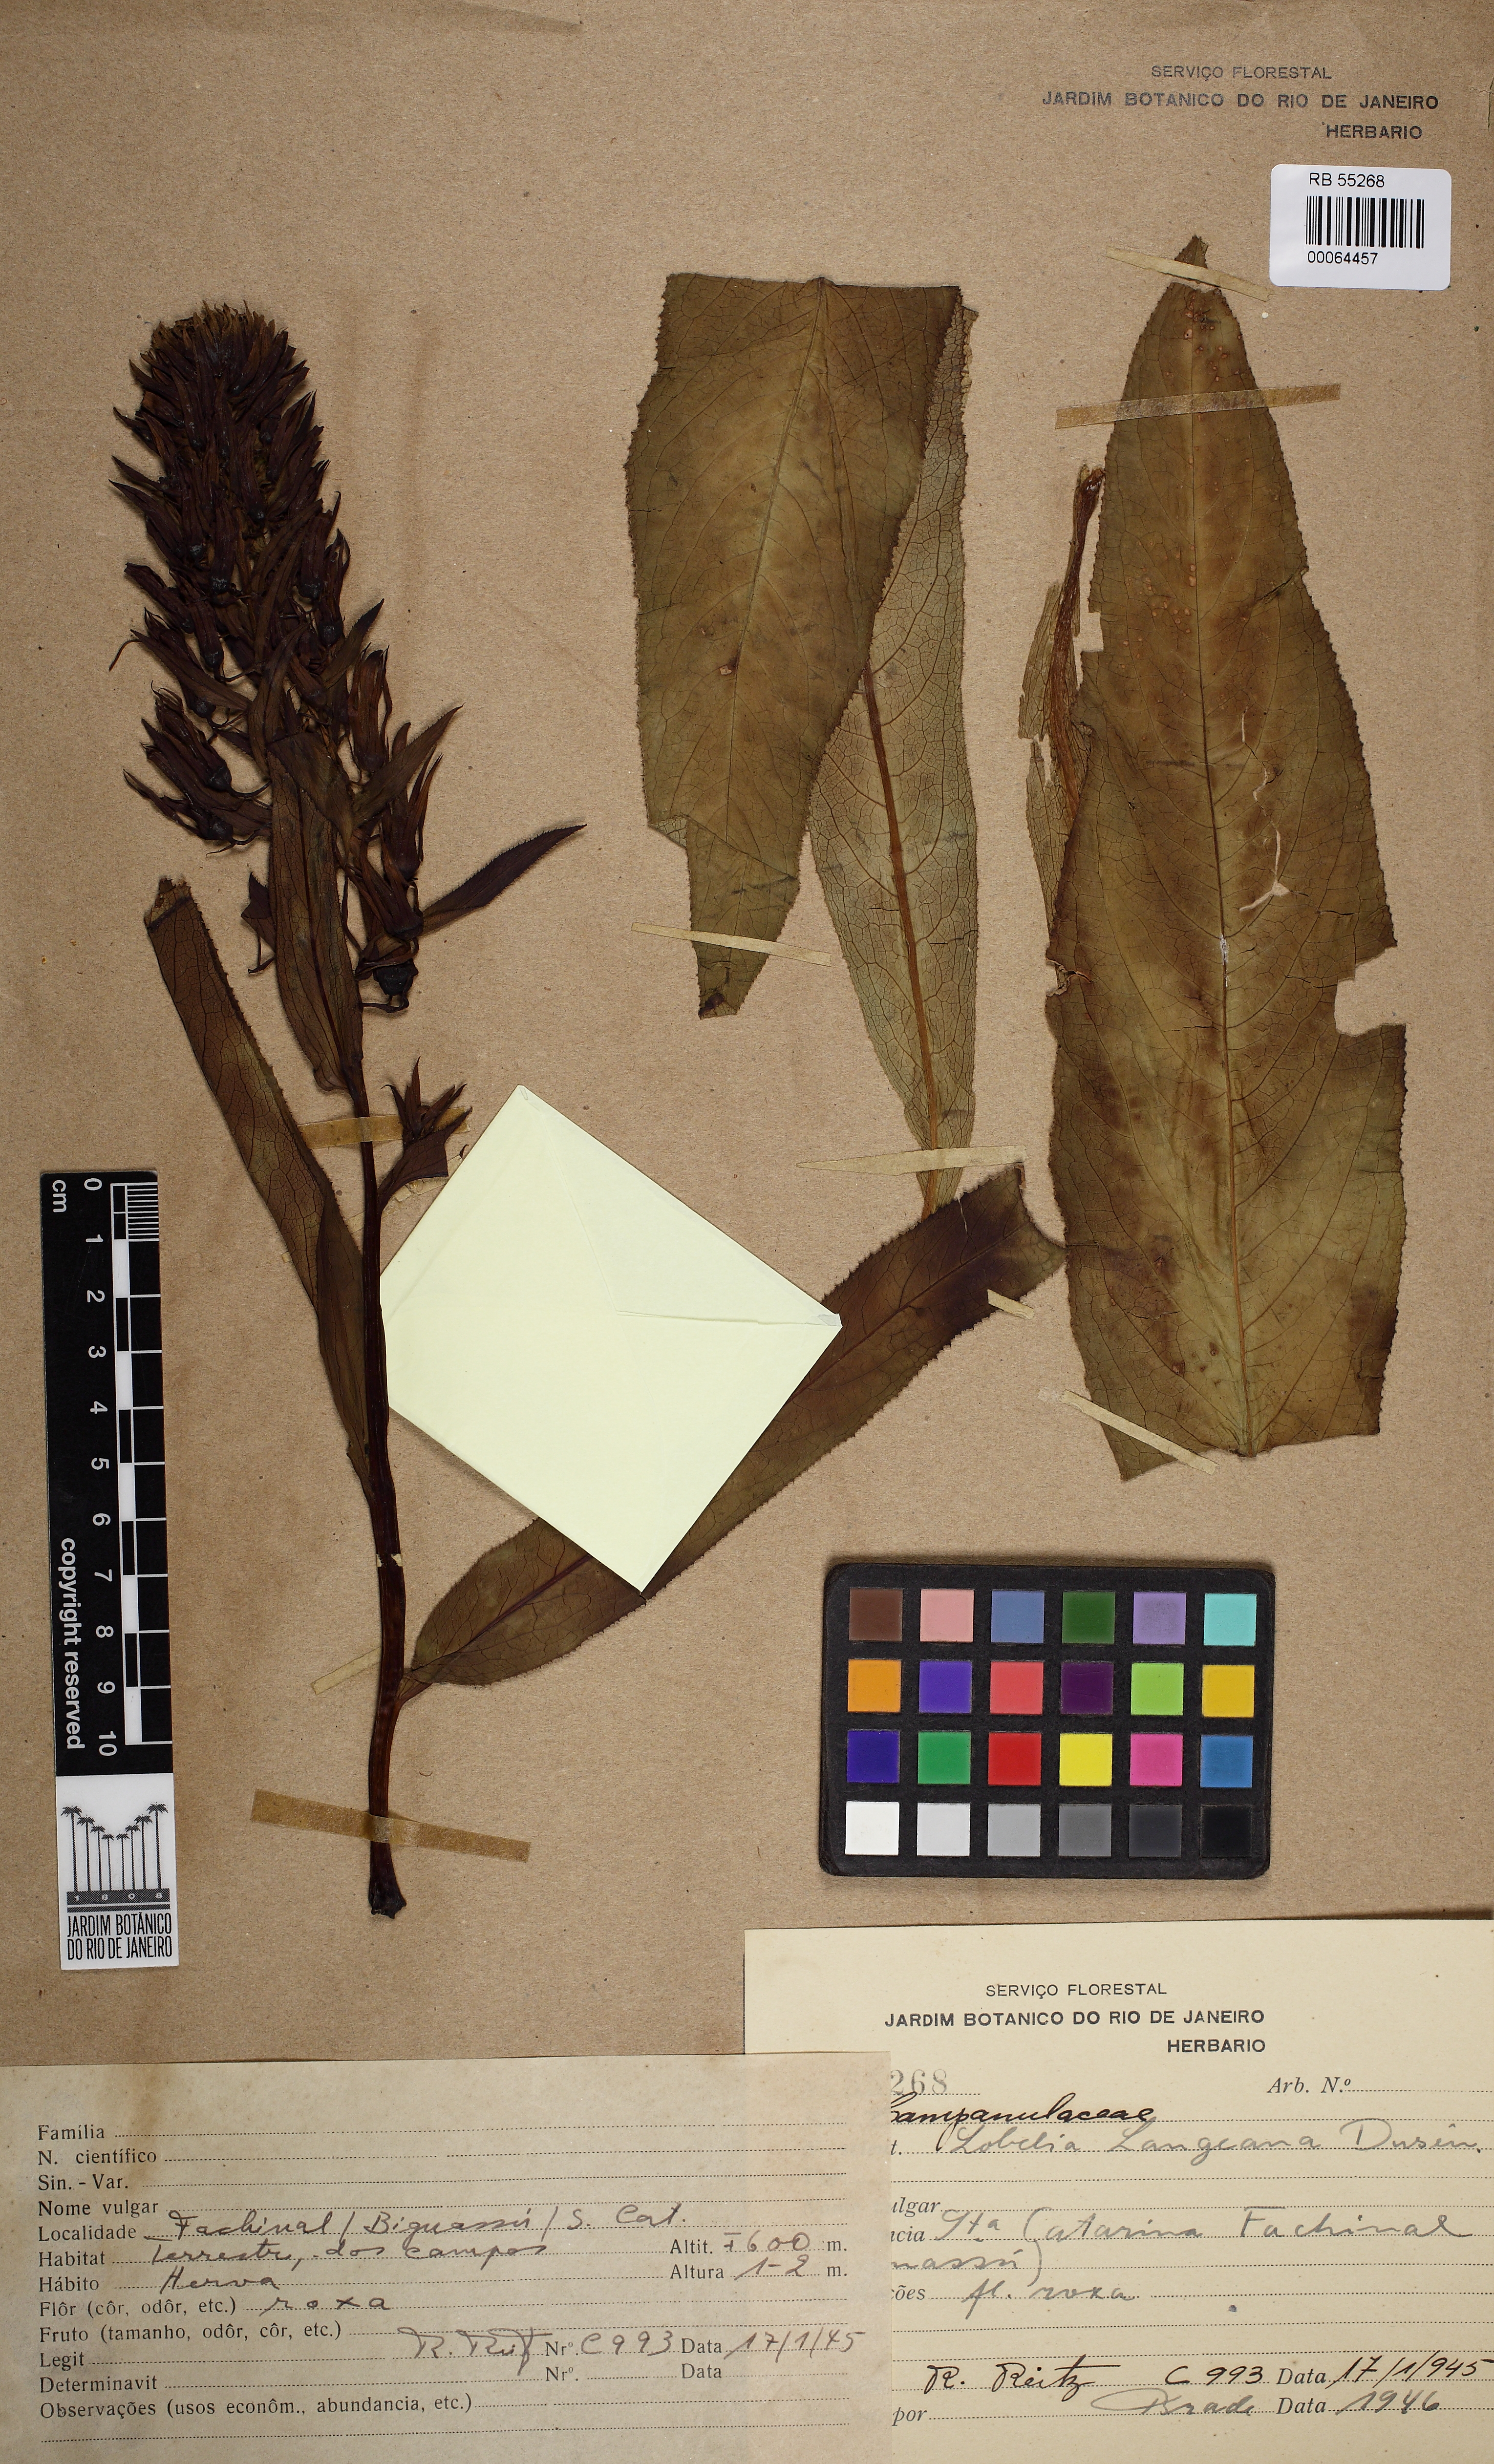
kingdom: Plantae
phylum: Tracheophyta
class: Magnoliopsida
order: Asterales
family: Campanulaceae
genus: Lobelia
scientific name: Lobelia langeana
